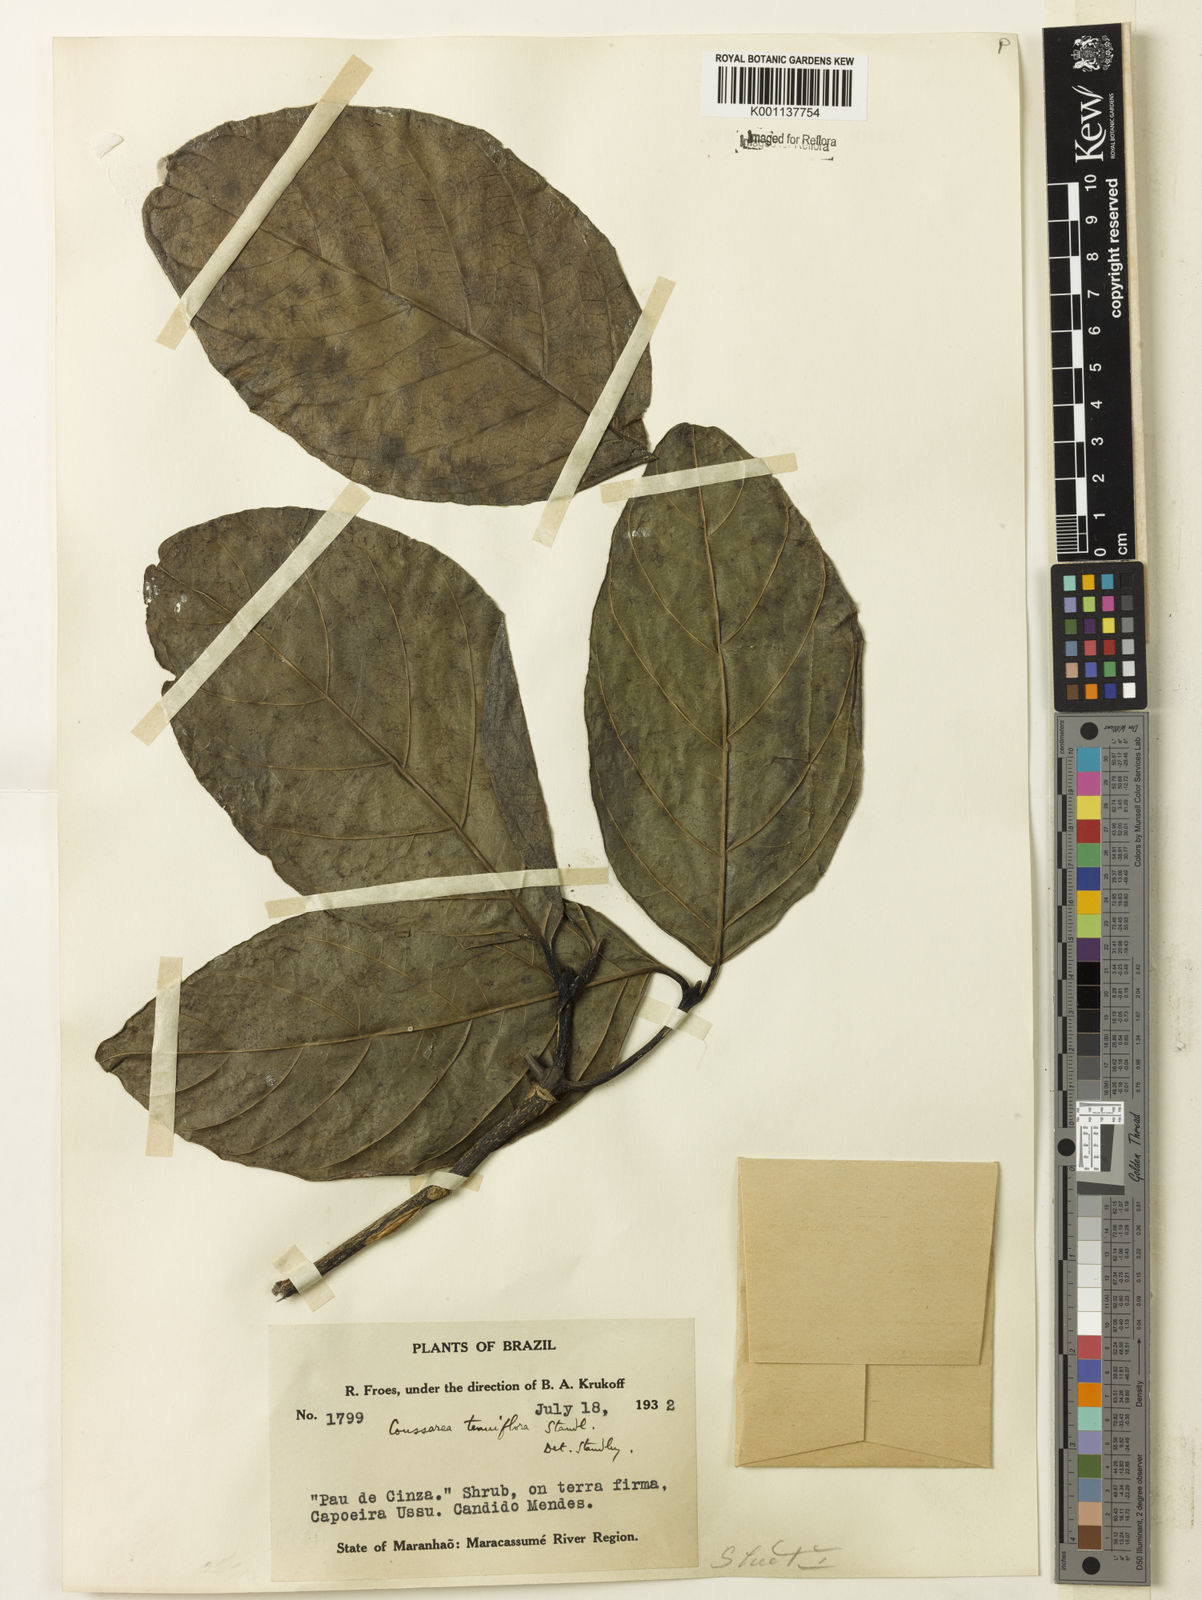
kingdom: Plantae
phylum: Tracheophyta
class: Magnoliopsida
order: Gentianales
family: Rubiaceae
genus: Coussarea
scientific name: Coussarea tenuiflora
